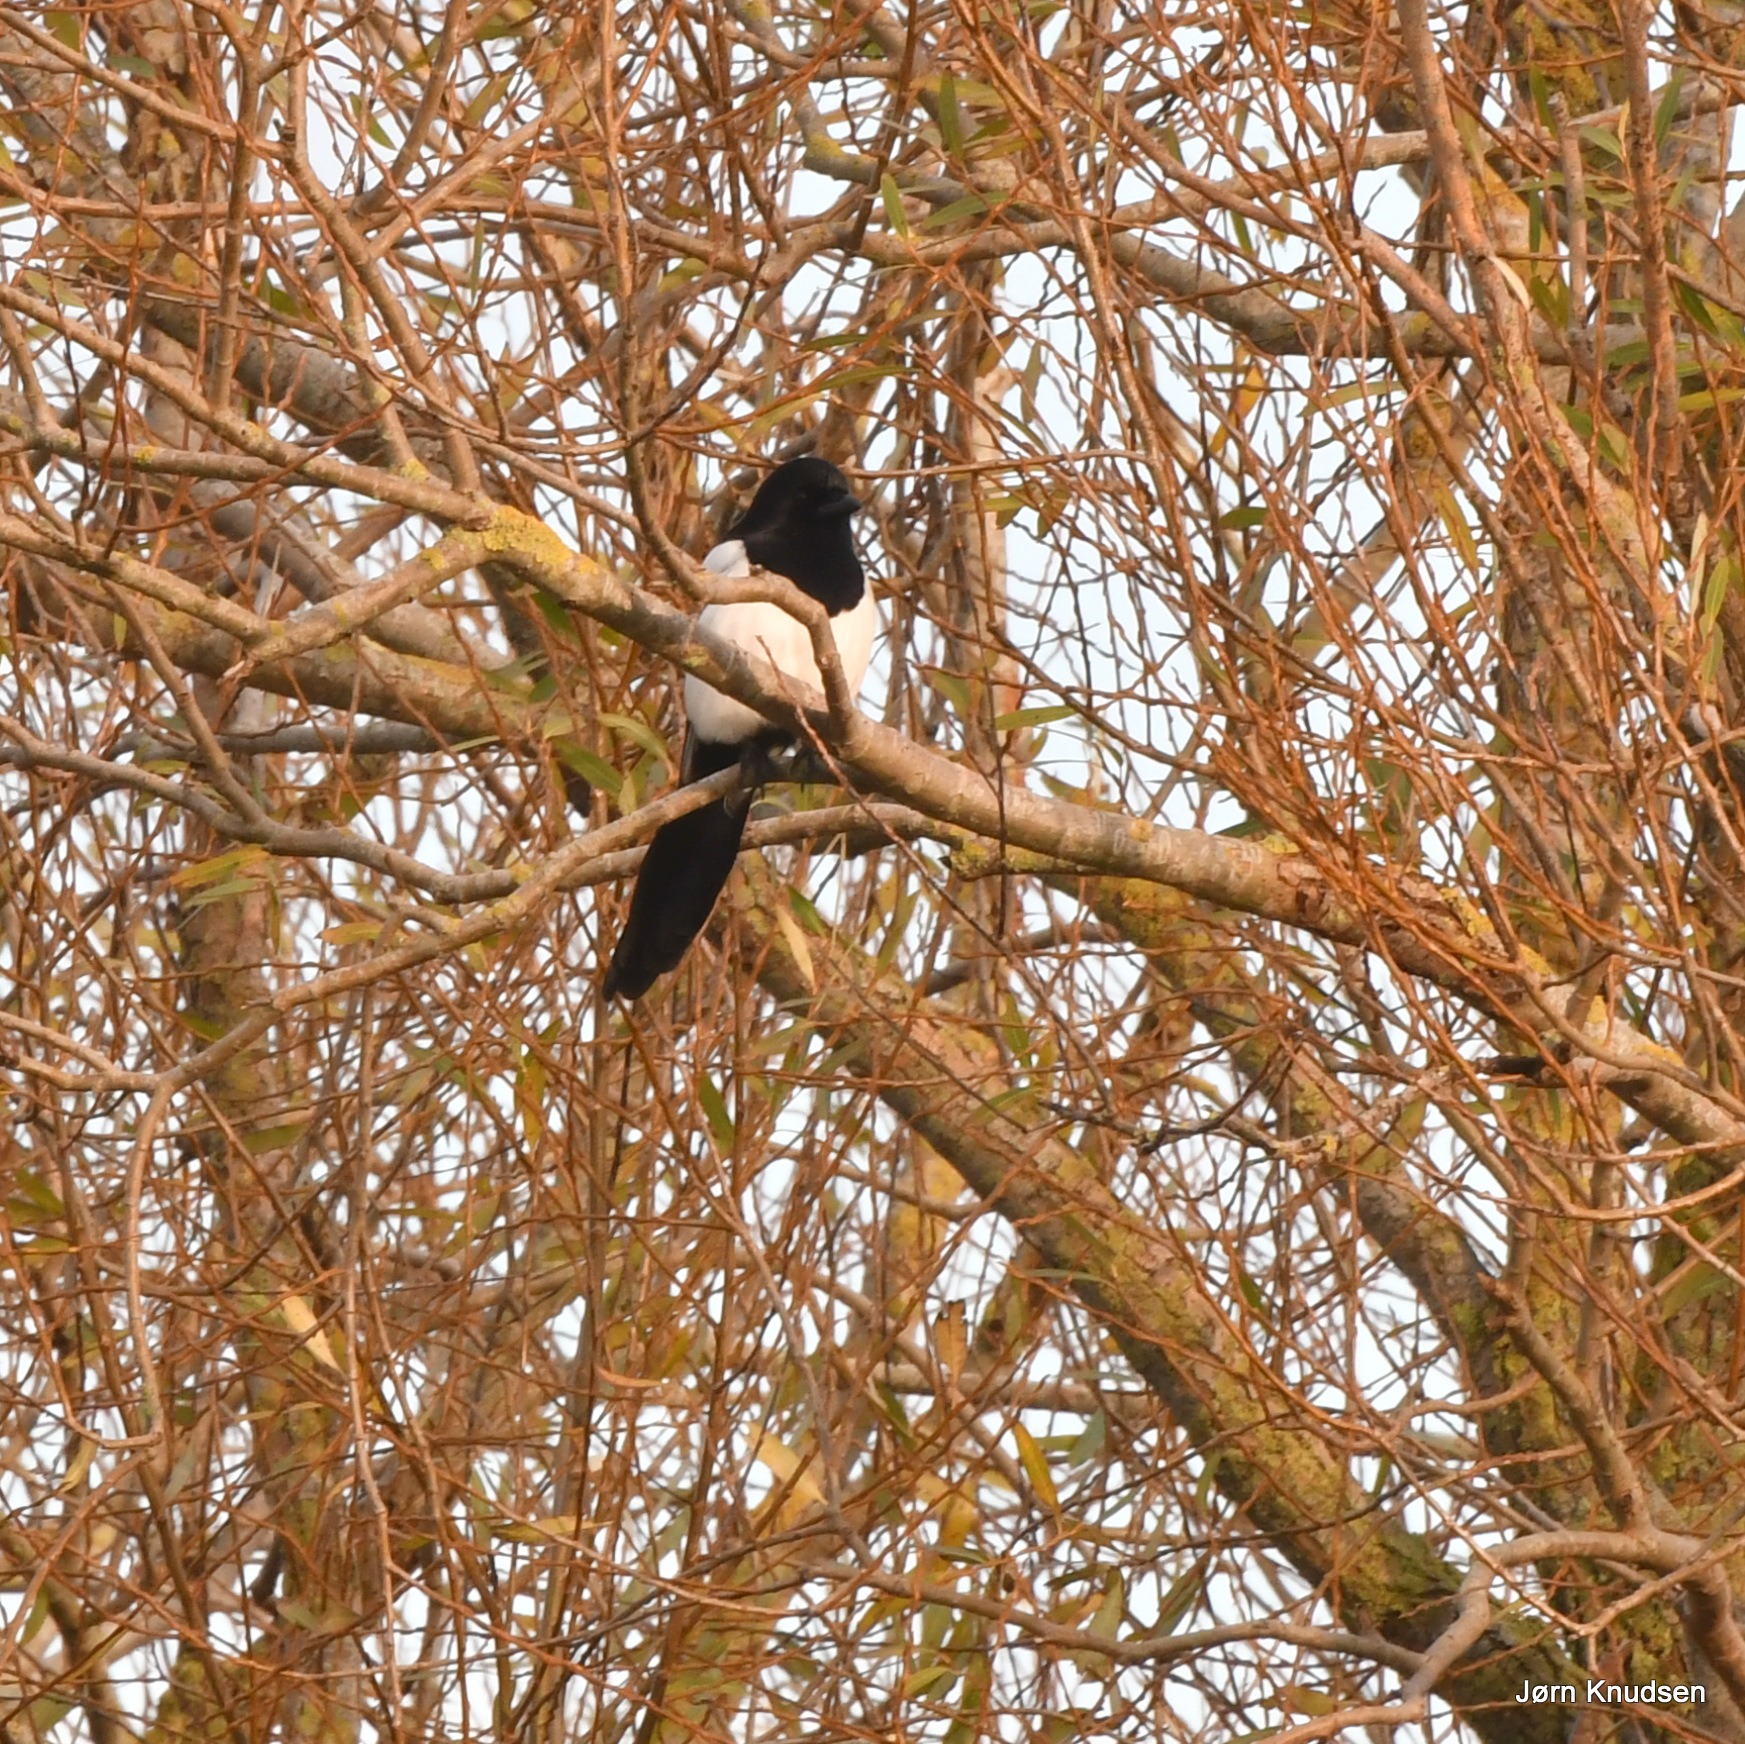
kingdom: Animalia
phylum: Chordata
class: Aves
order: Passeriformes
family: Corvidae
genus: Pica
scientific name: Pica pica
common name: Husskade
